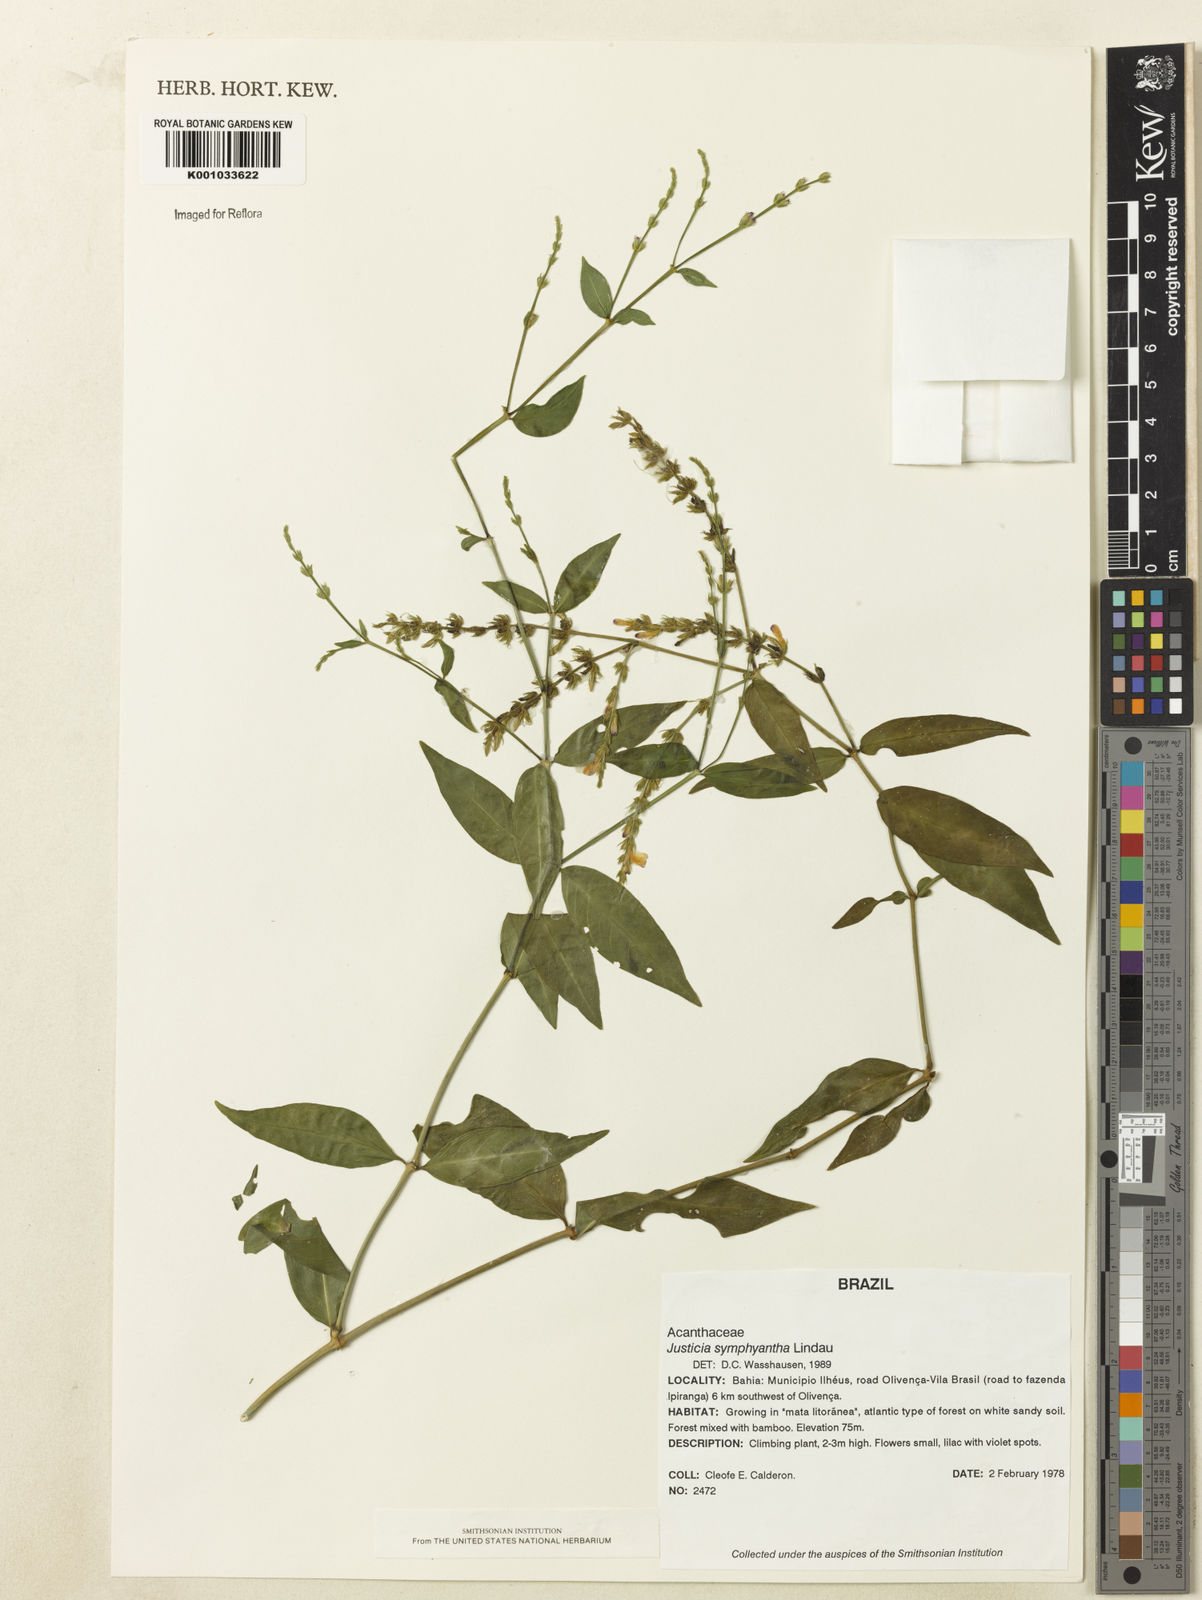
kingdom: Plantae
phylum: Tracheophyta
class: Magnoliopsida
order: Lamiales
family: Acanthaceae
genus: Justicia
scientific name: Justicia symphyantha
